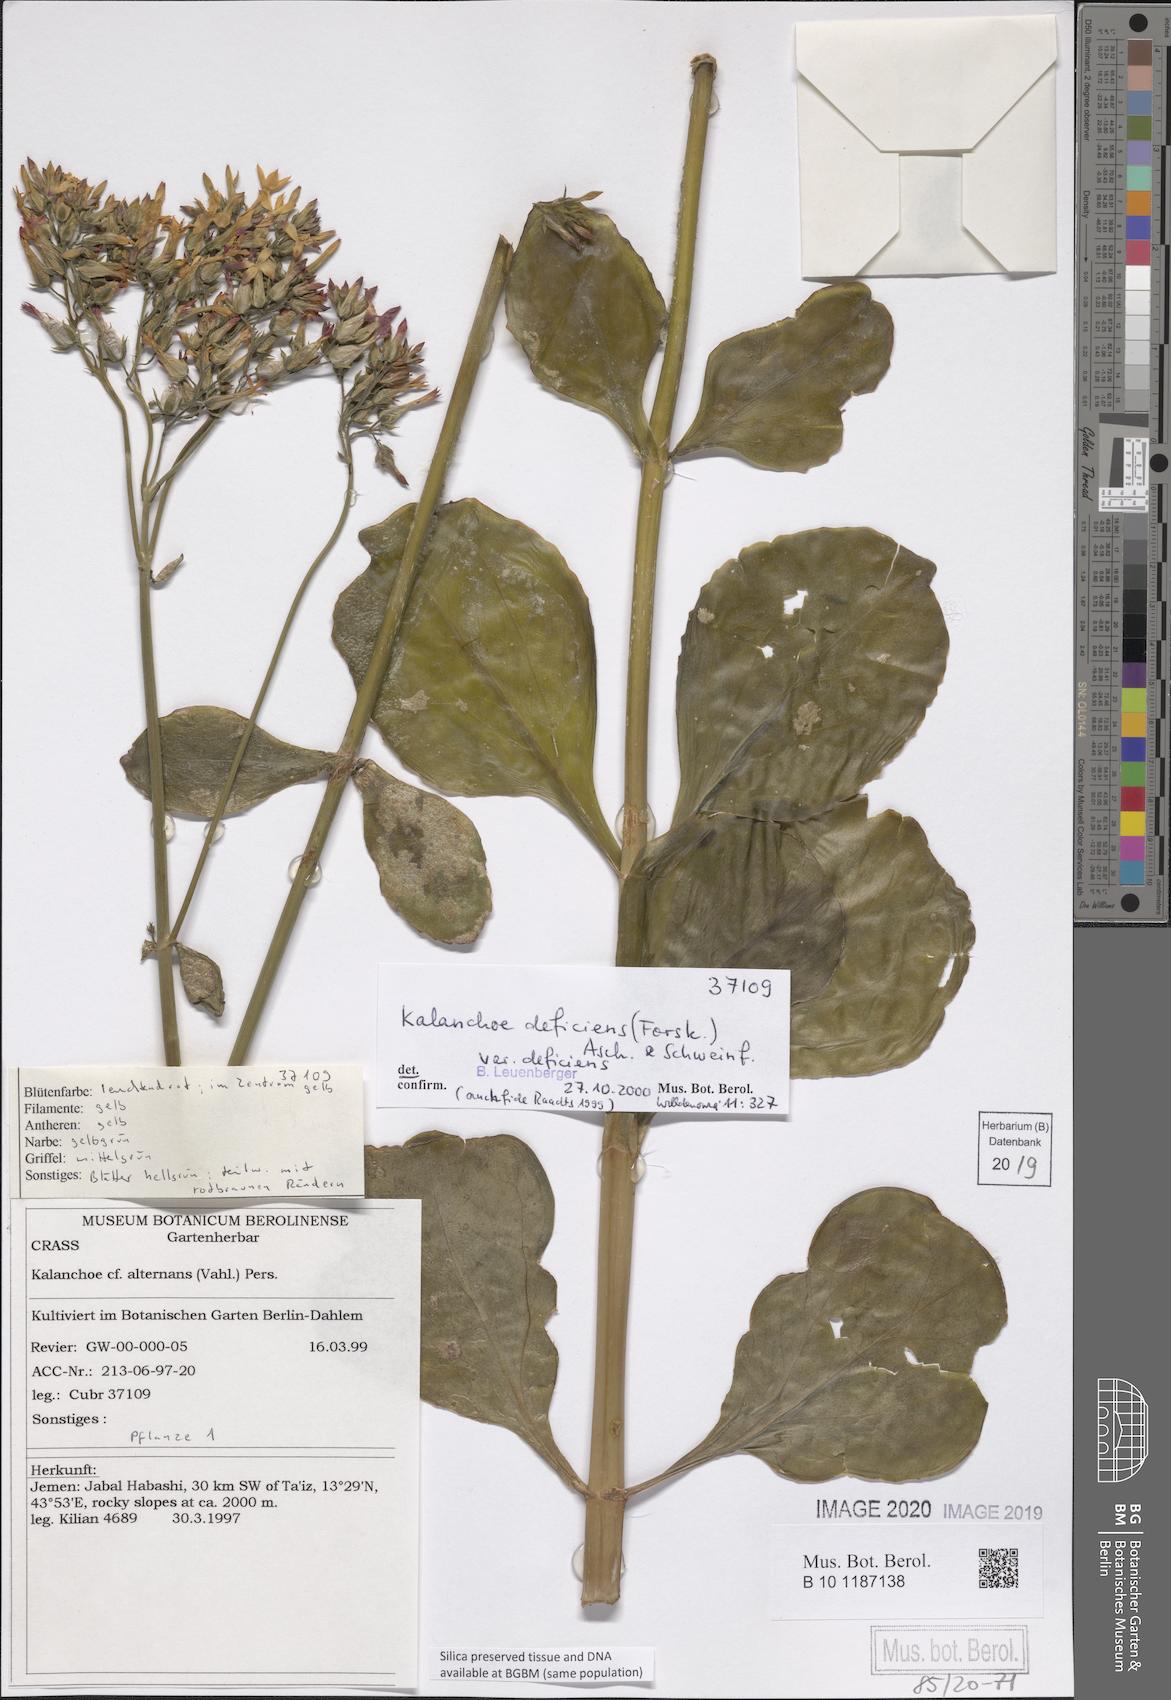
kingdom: Plantae
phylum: Tracheophyta
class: Magnoliopsida
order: Saxifragales
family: Crassulaceae
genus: Kalanchoe
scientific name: Kalanchoe deficiens
